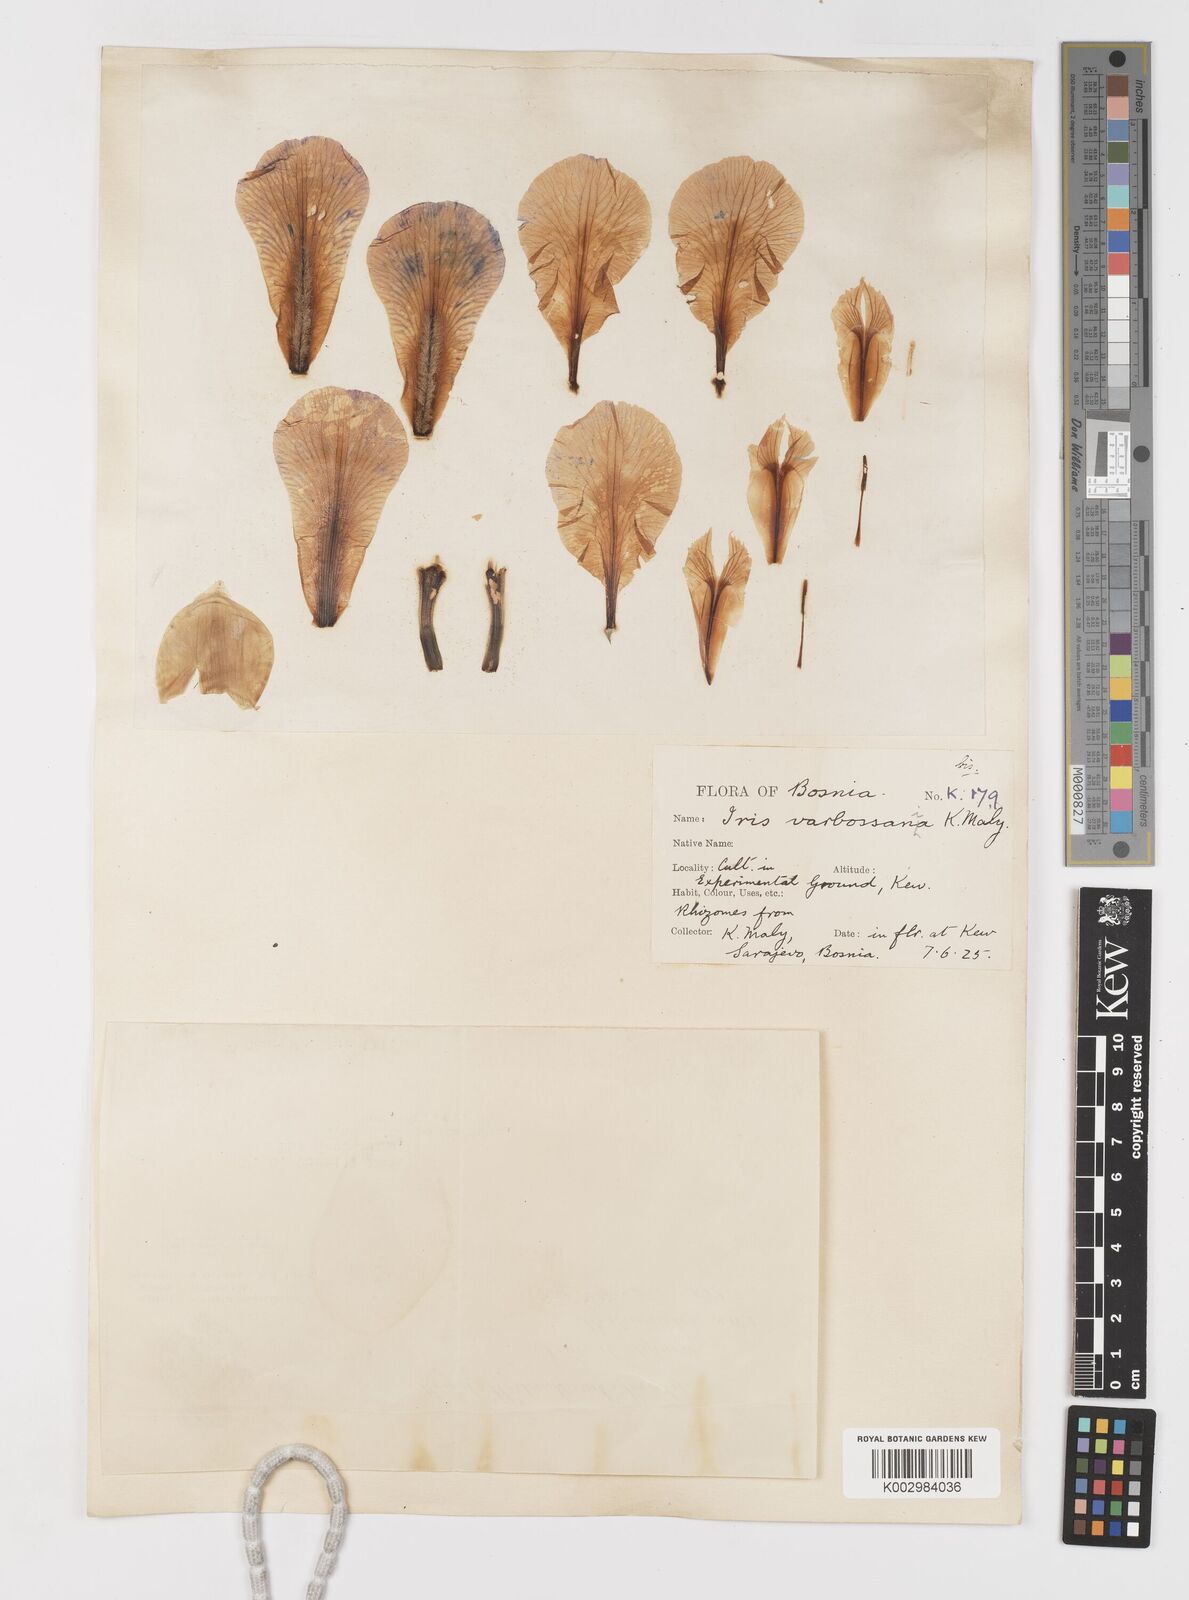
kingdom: Plantae
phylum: Tracheophyta
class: Liliopsida
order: Asparagales
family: Iridaceae
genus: Iris
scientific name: Iris germanica
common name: German iris
